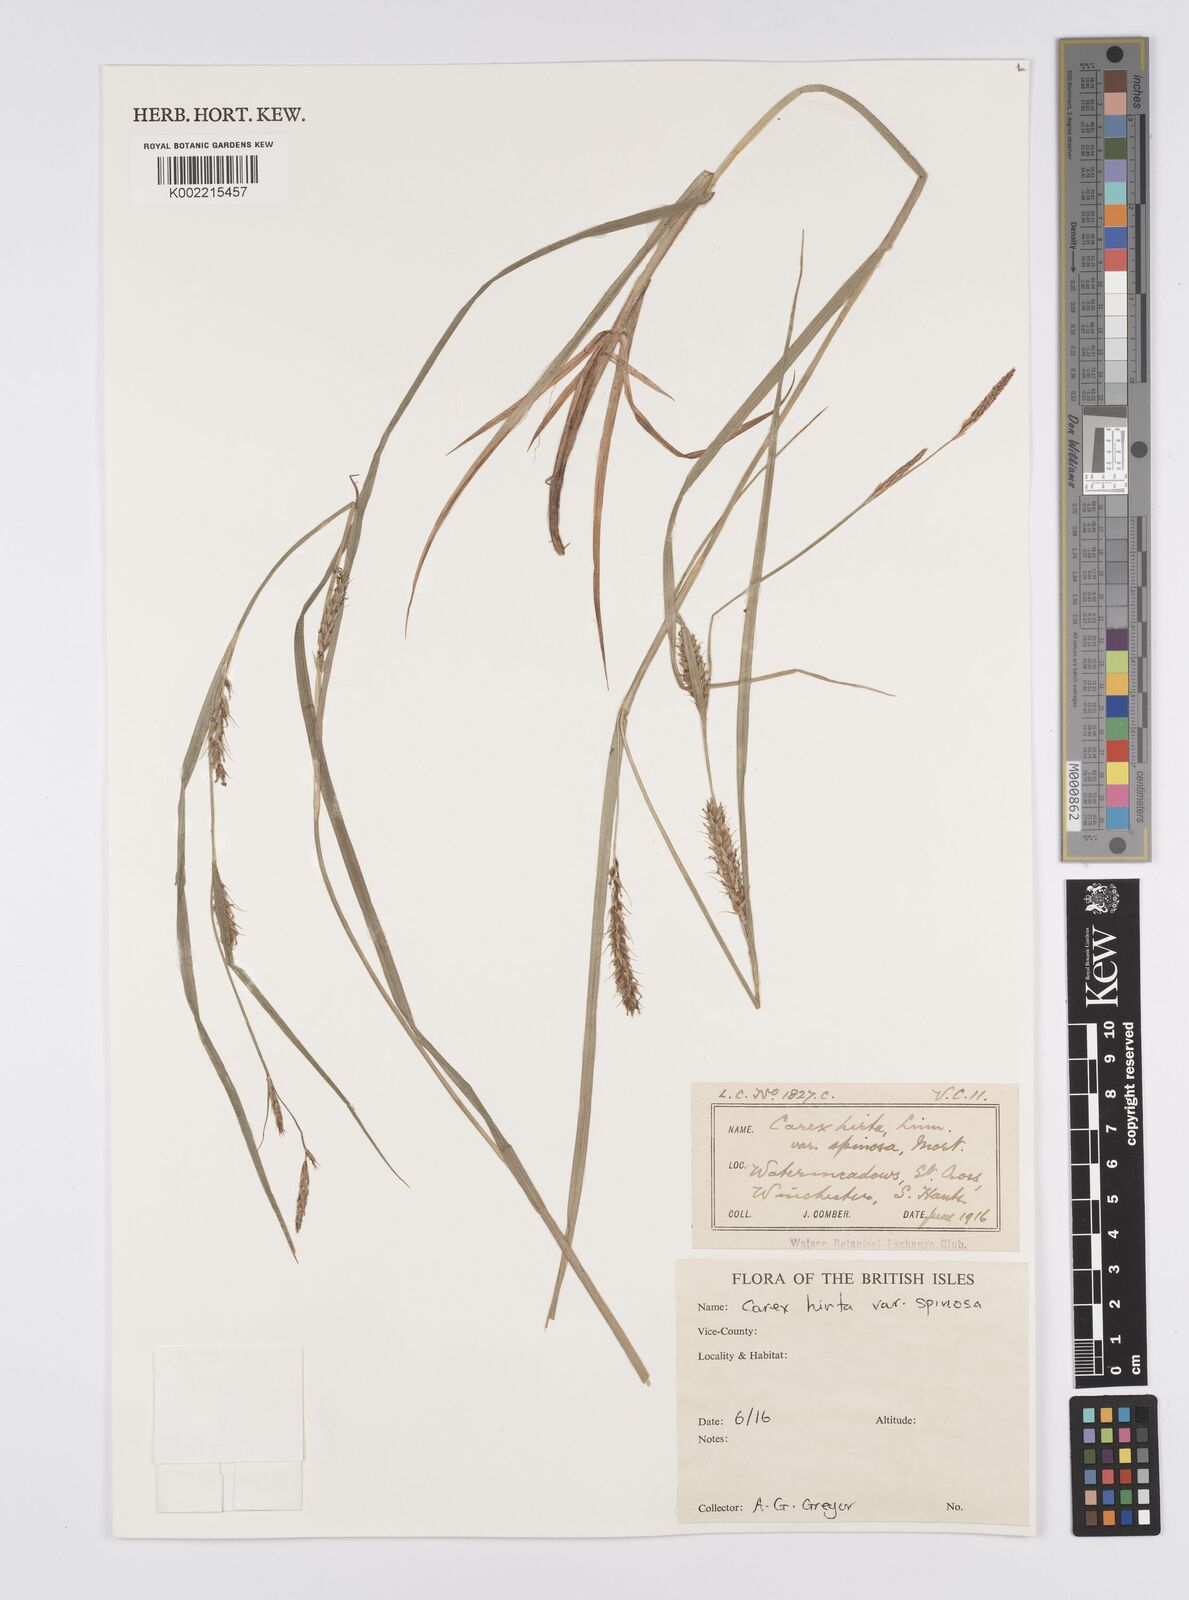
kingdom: Plantae
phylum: Tracheophyta
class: Liliopsida
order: Poales
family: Cyperaceae
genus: Carex
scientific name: Carex hirta
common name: Hairy sedge
